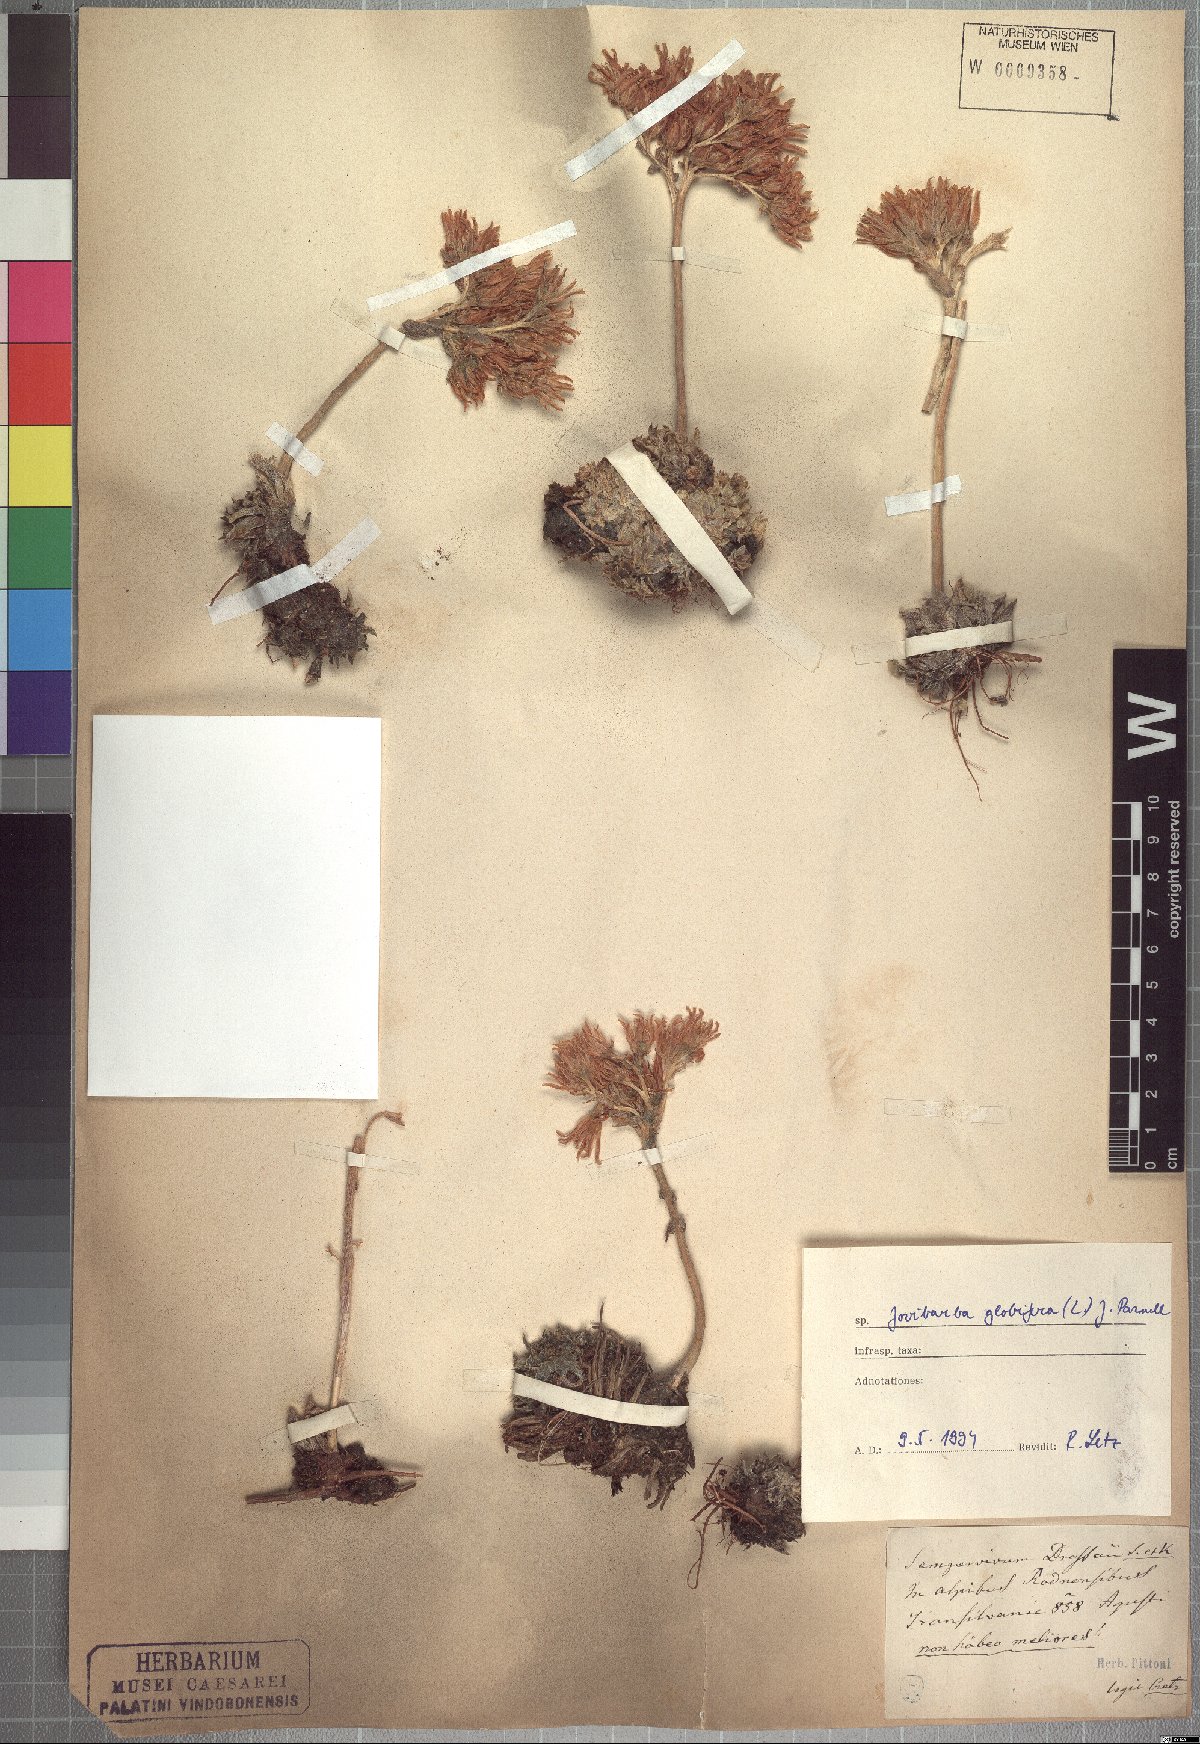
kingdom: Plantae
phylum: Tracheophyta
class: Magnoliopsida
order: Saxifragales
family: Crassulaceae
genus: Sempervivum
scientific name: Sempervivum globiferum
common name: Rolling hen-and-chicks
